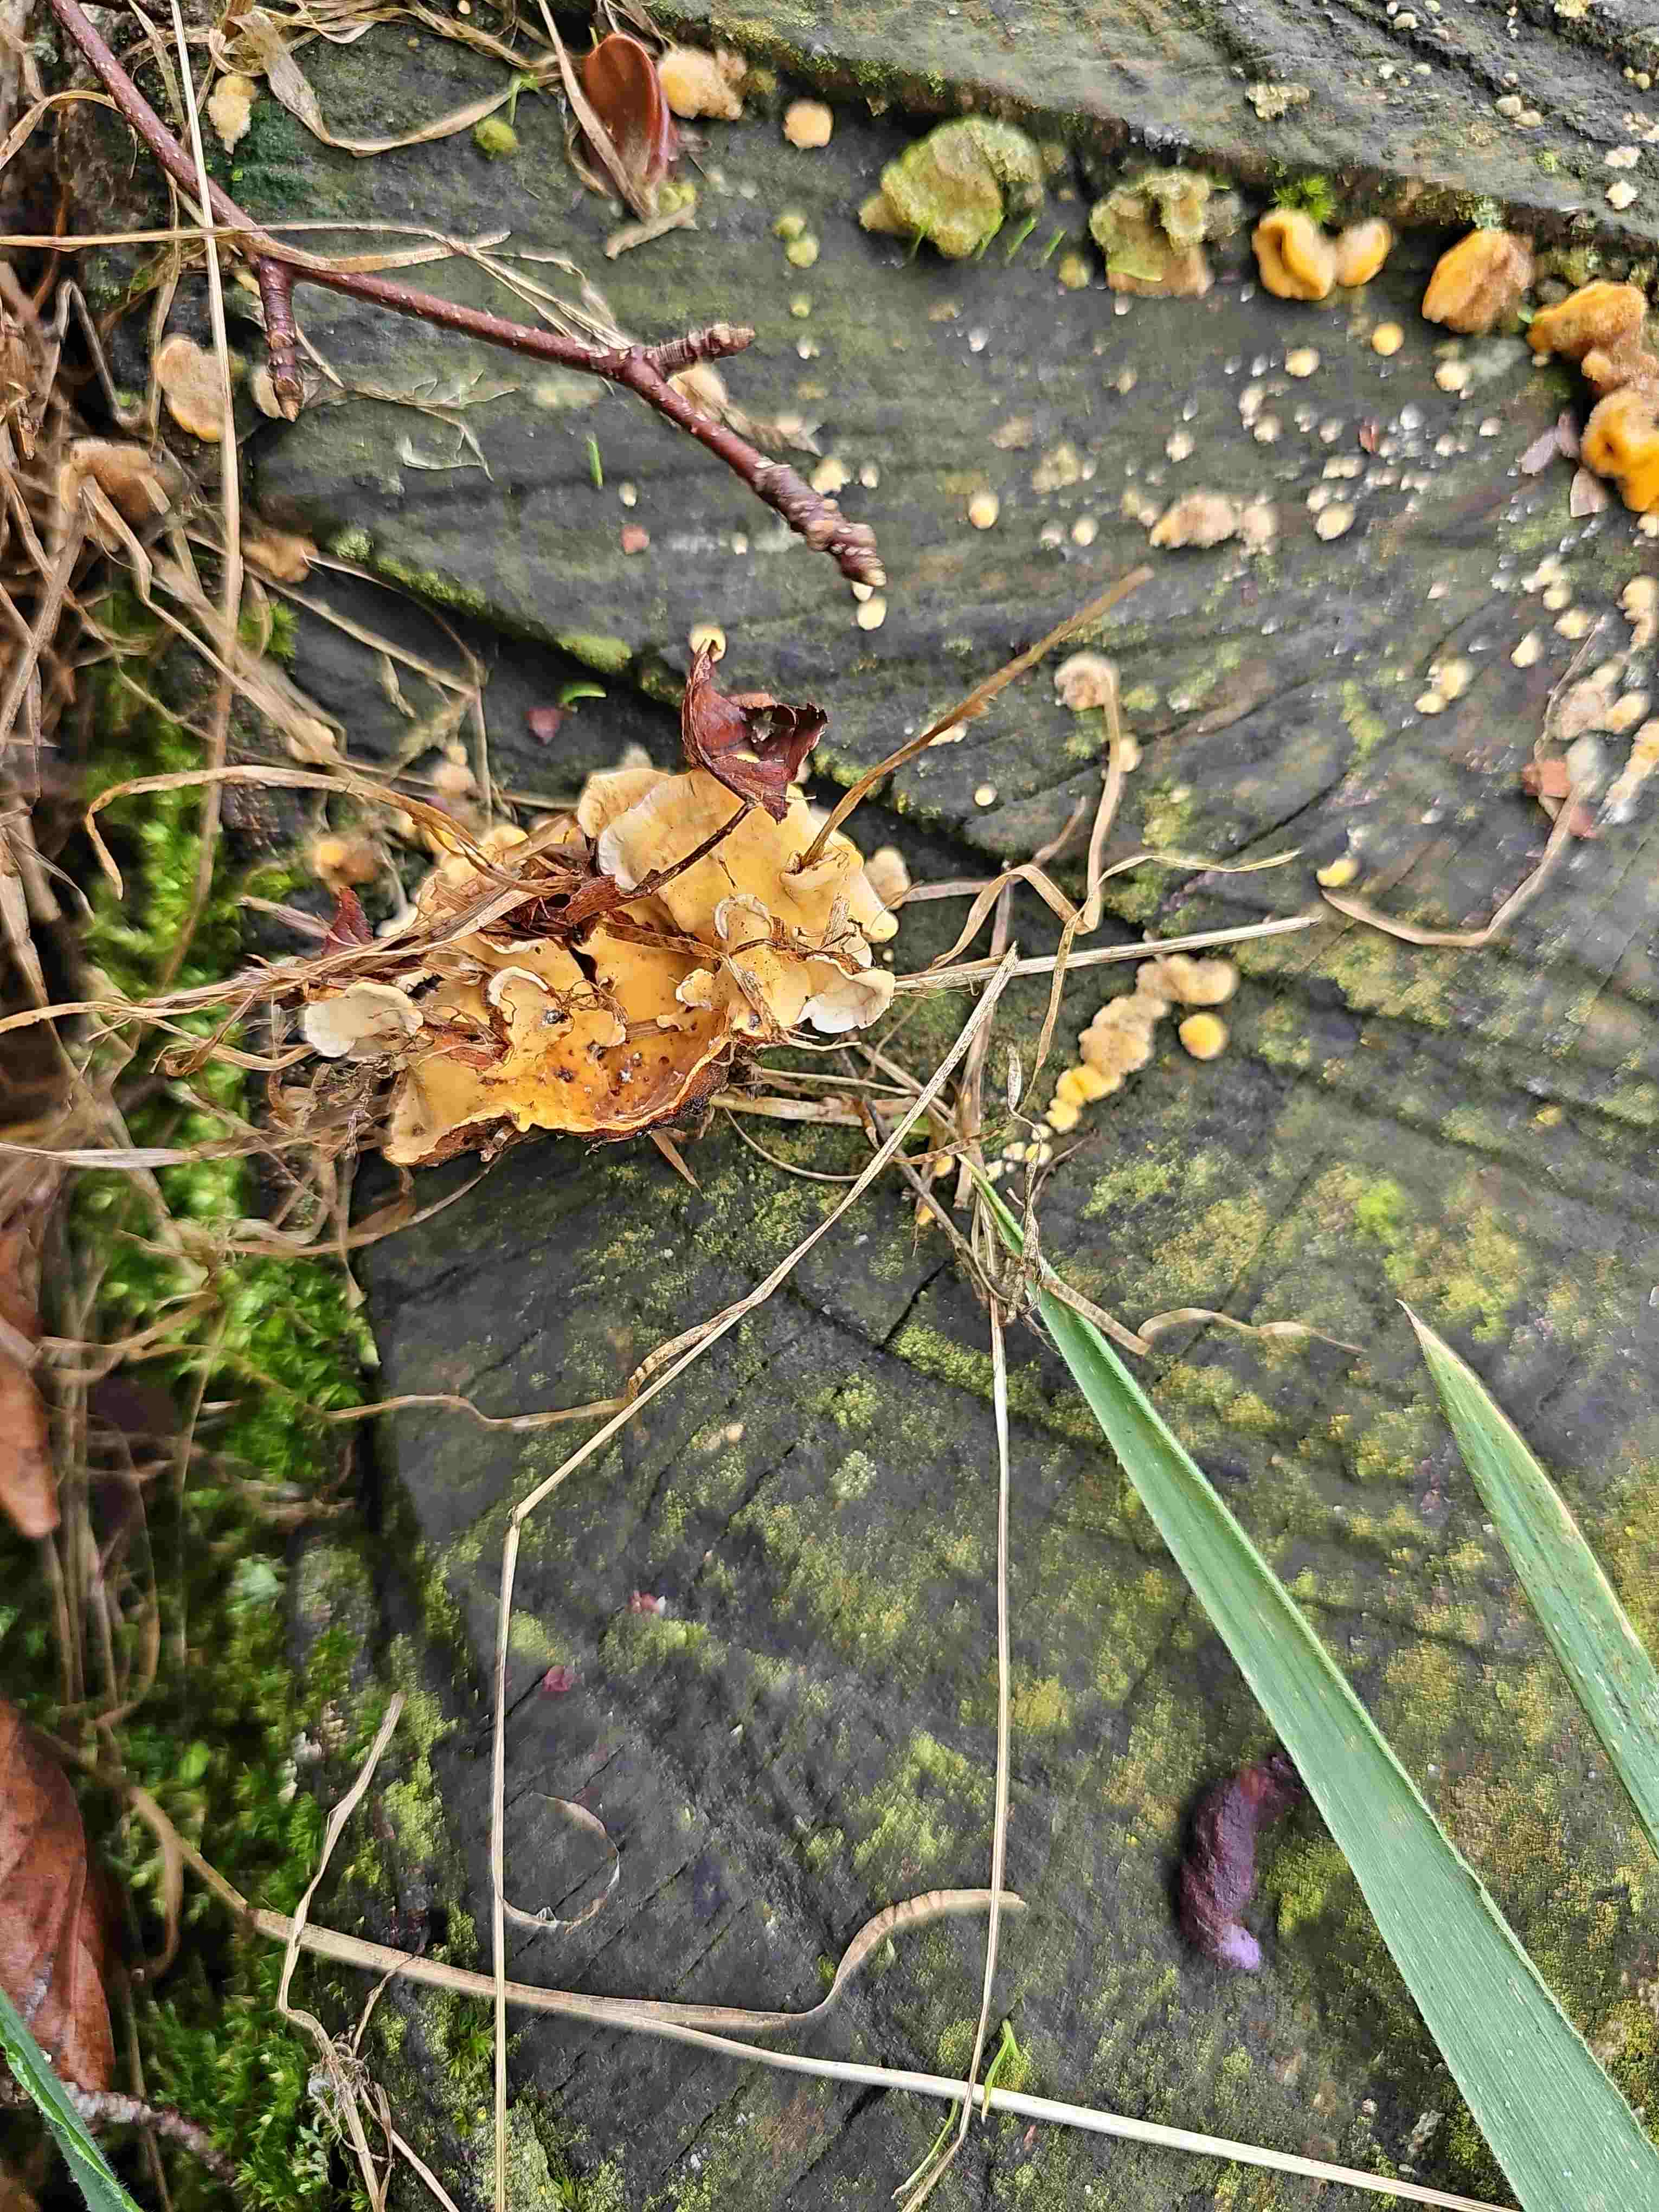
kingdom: Fungi
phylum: Basidiomycota
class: Agaricomycetes
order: Russulales
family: Stereaceae
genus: Stereum
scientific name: Stereum hirsutum
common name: håret lædersvamp
